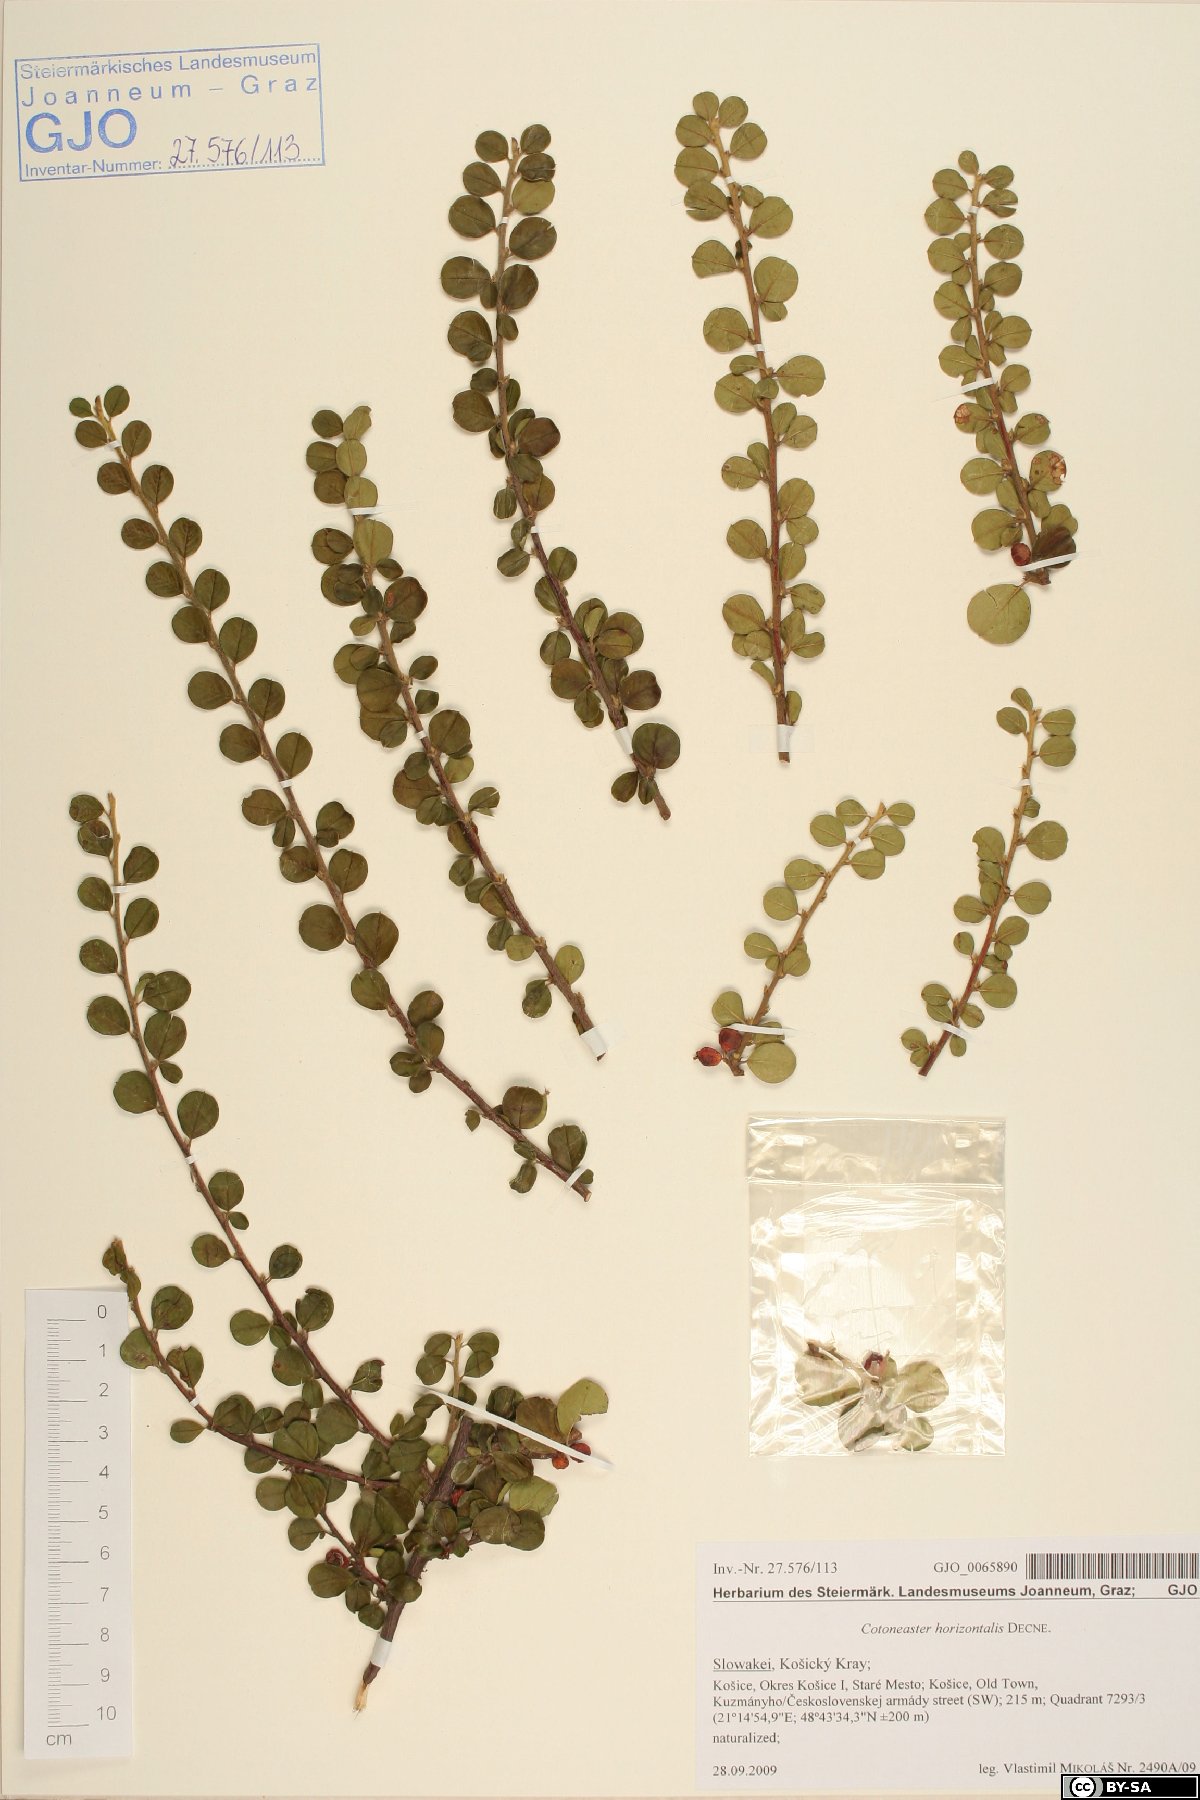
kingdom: Plantae
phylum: Tracheophyta
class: Magnoliopsida
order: Rosales
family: Rosaceae
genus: Cotoneaster
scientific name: Cotoneaster horizontalis
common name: Wall cotoneaster
